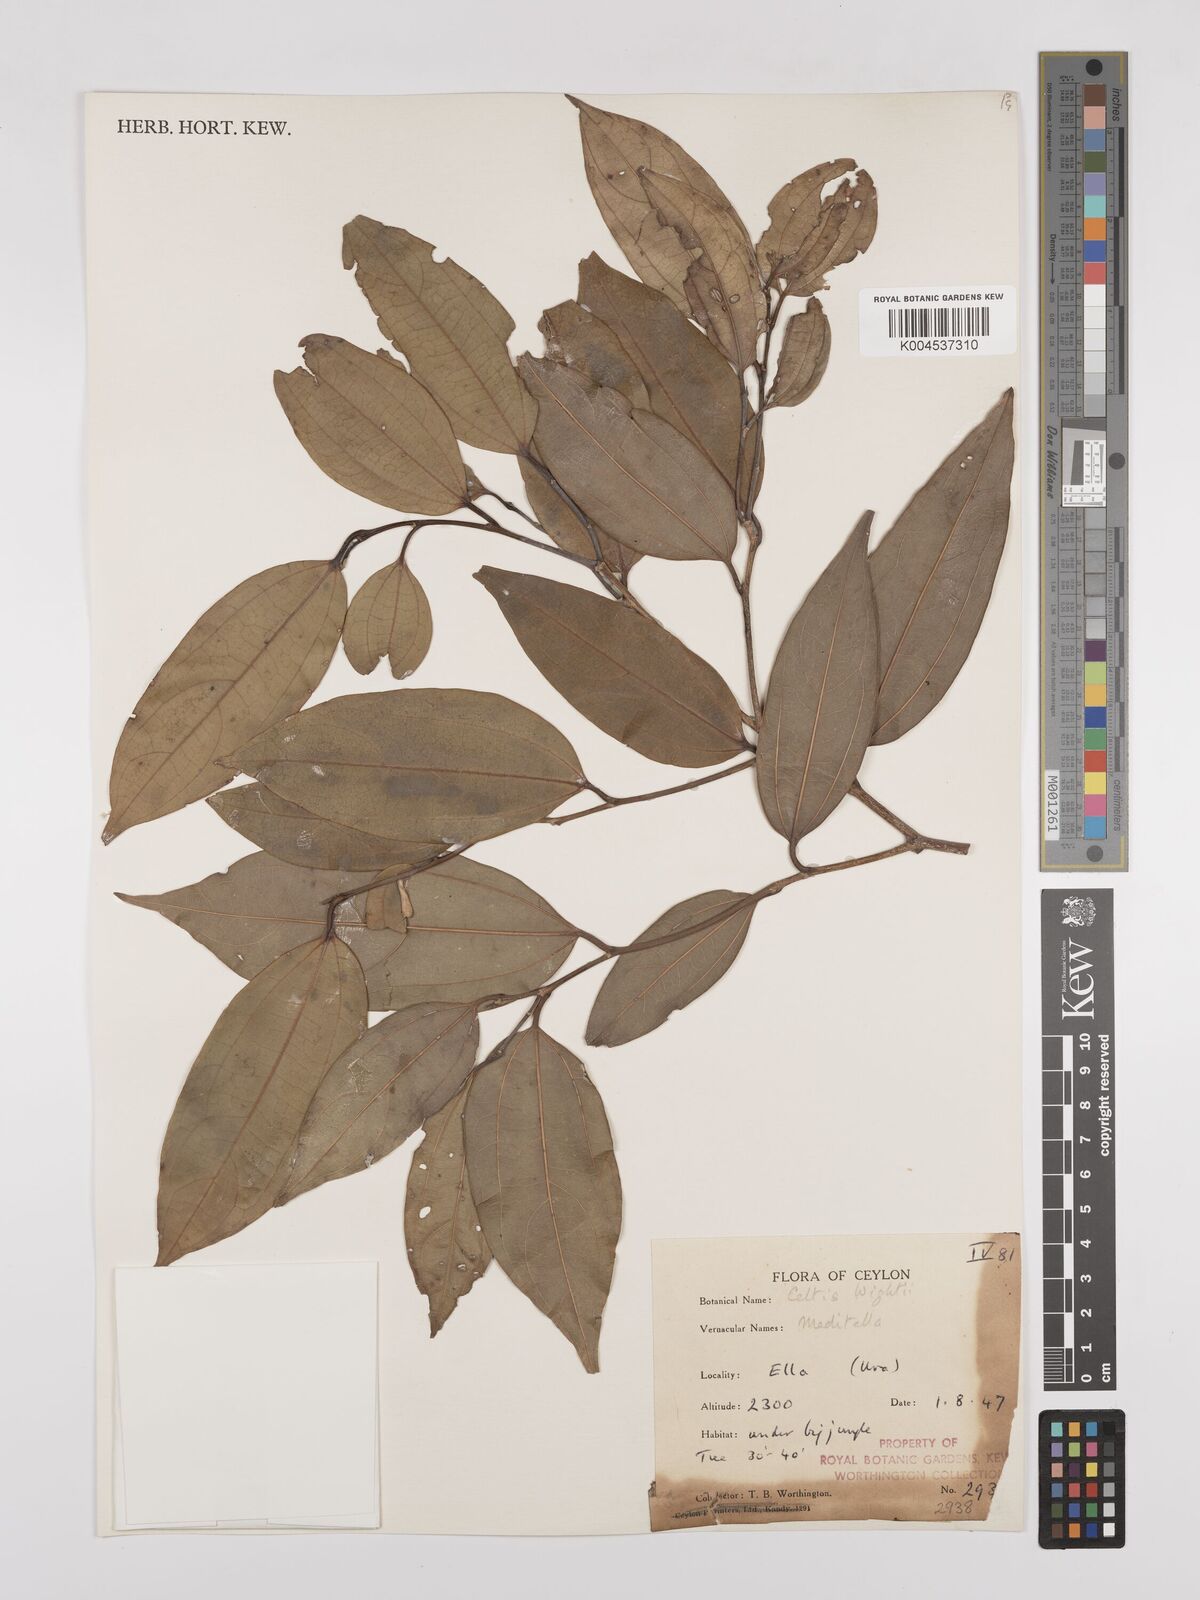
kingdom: Plantae
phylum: Tracheophyta
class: Magnoliopsida
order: Rosales
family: Cannabaceae
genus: Celtis
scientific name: Celtis philippensis
